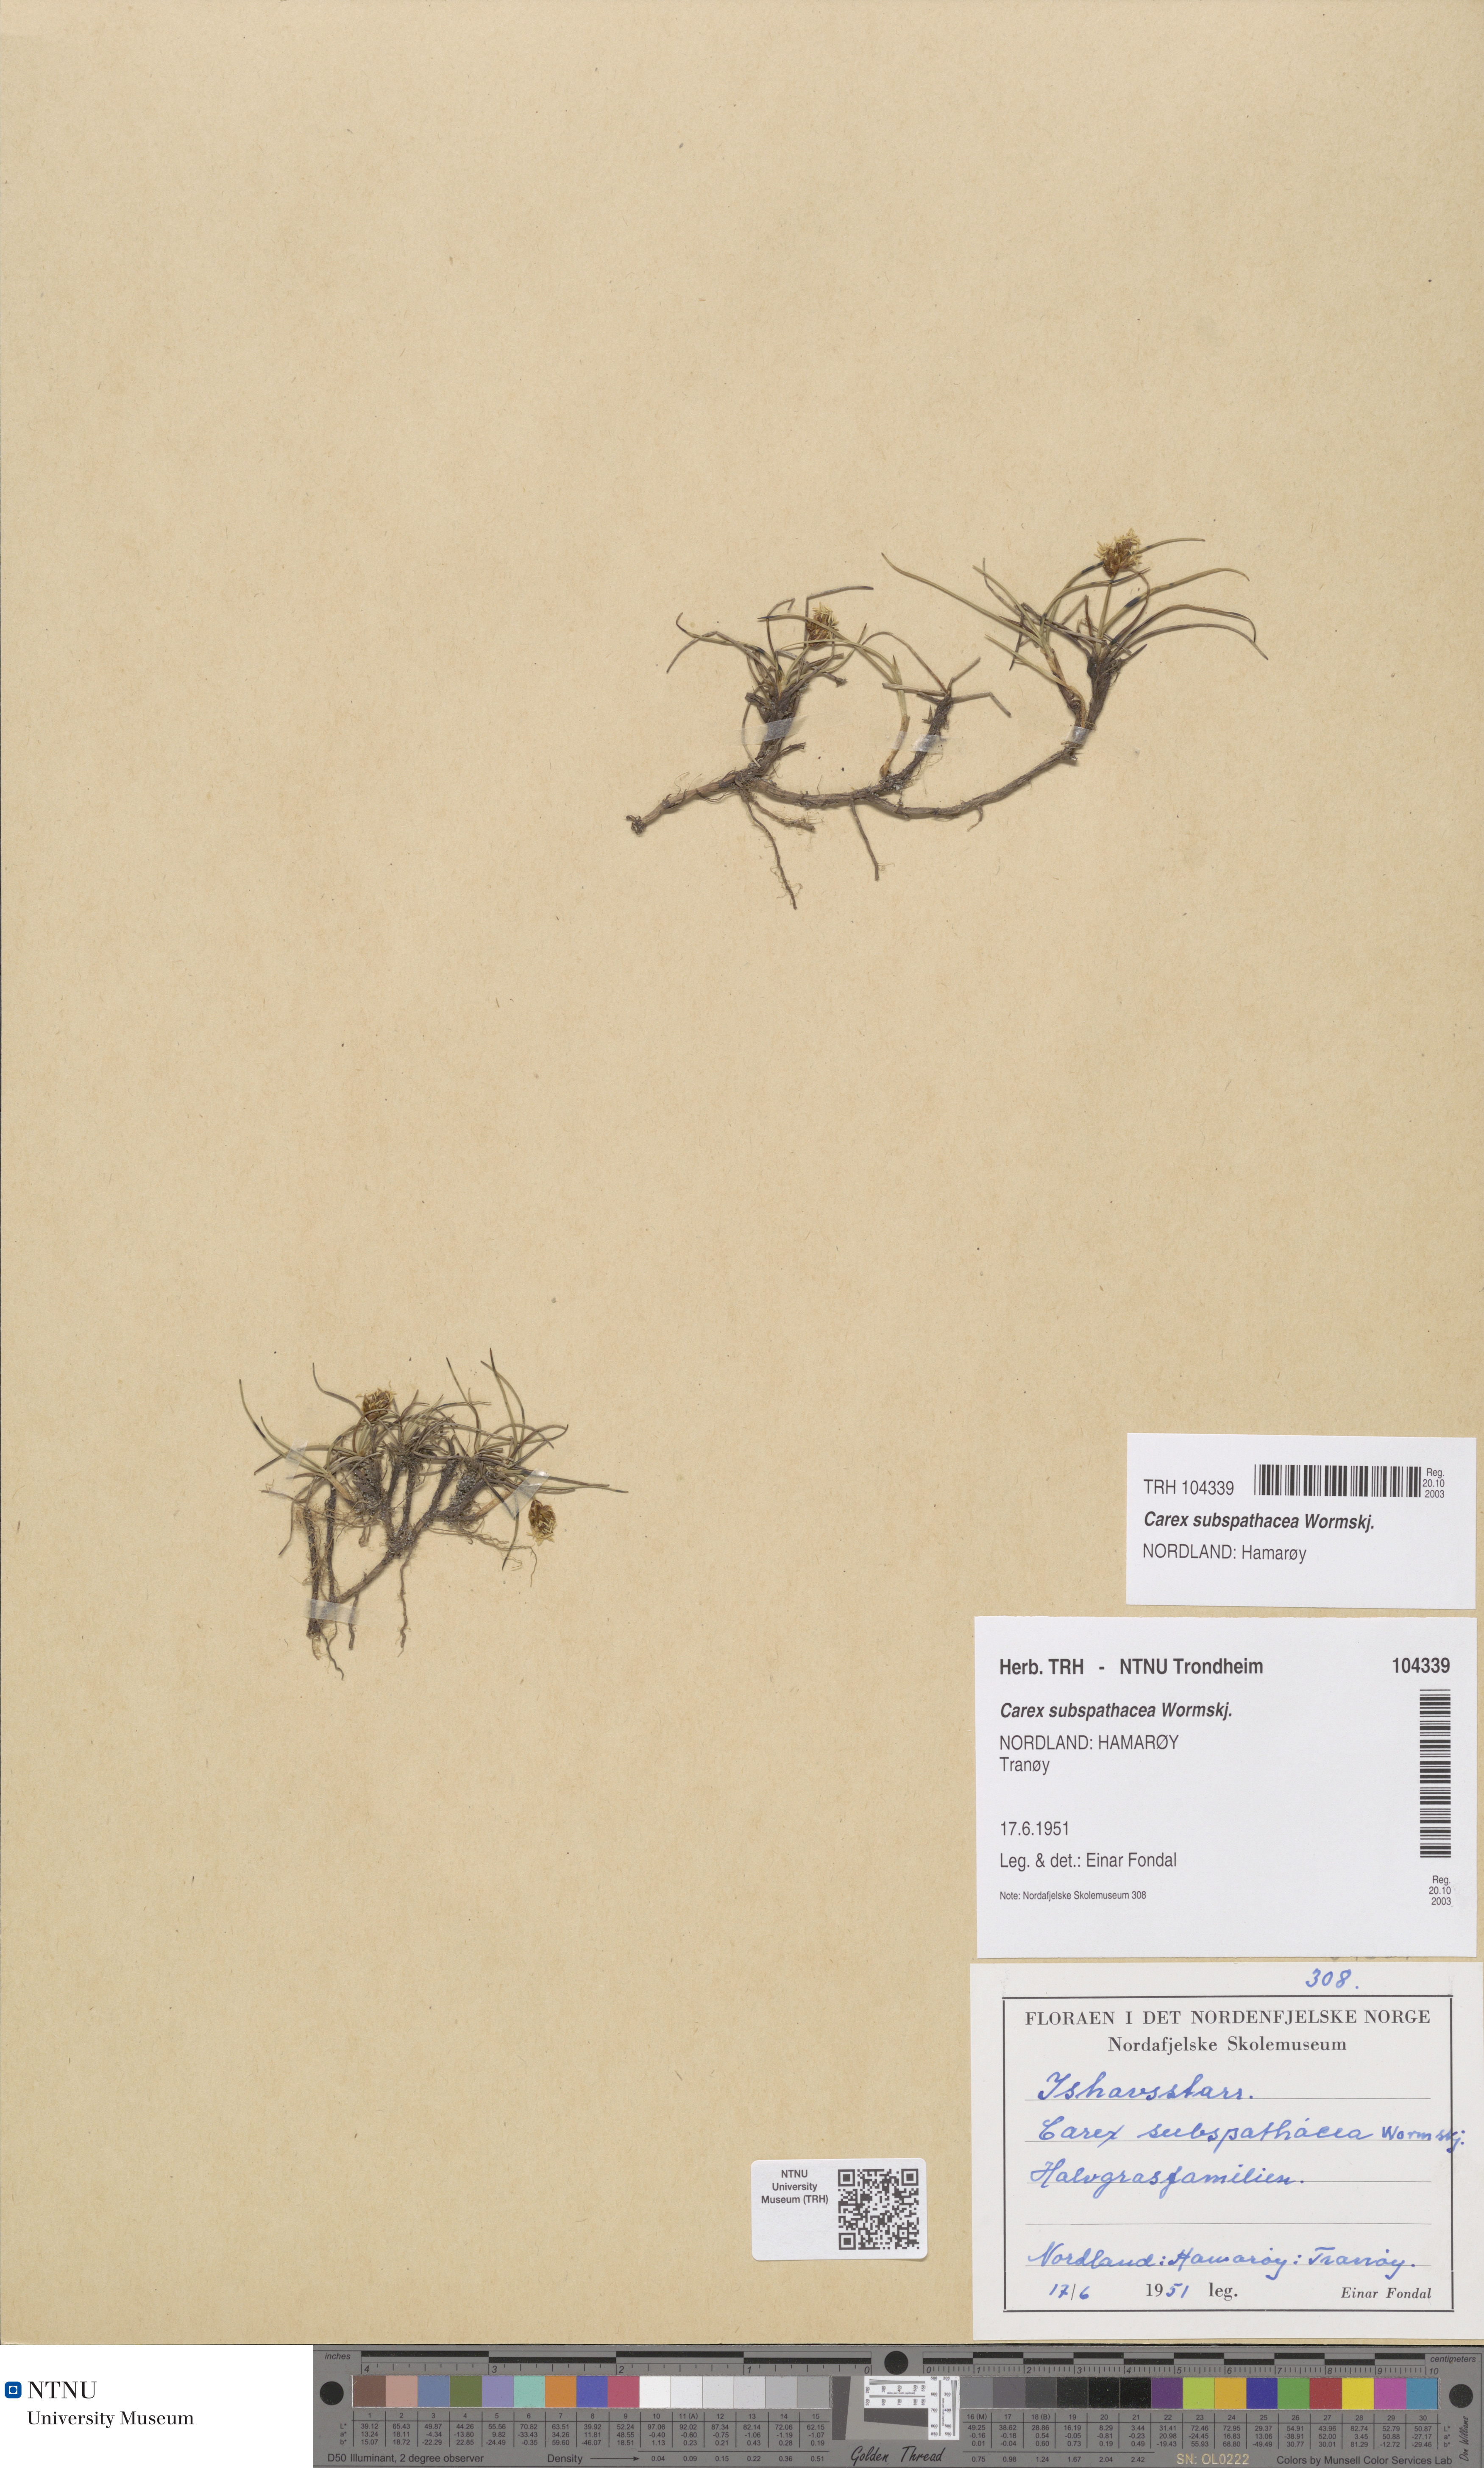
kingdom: Plantae
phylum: Tracheophyta
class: Liliopsida
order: Poales
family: Cyperaceae
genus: Carex
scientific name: Carex subspathacea
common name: Hoppner's sedge
